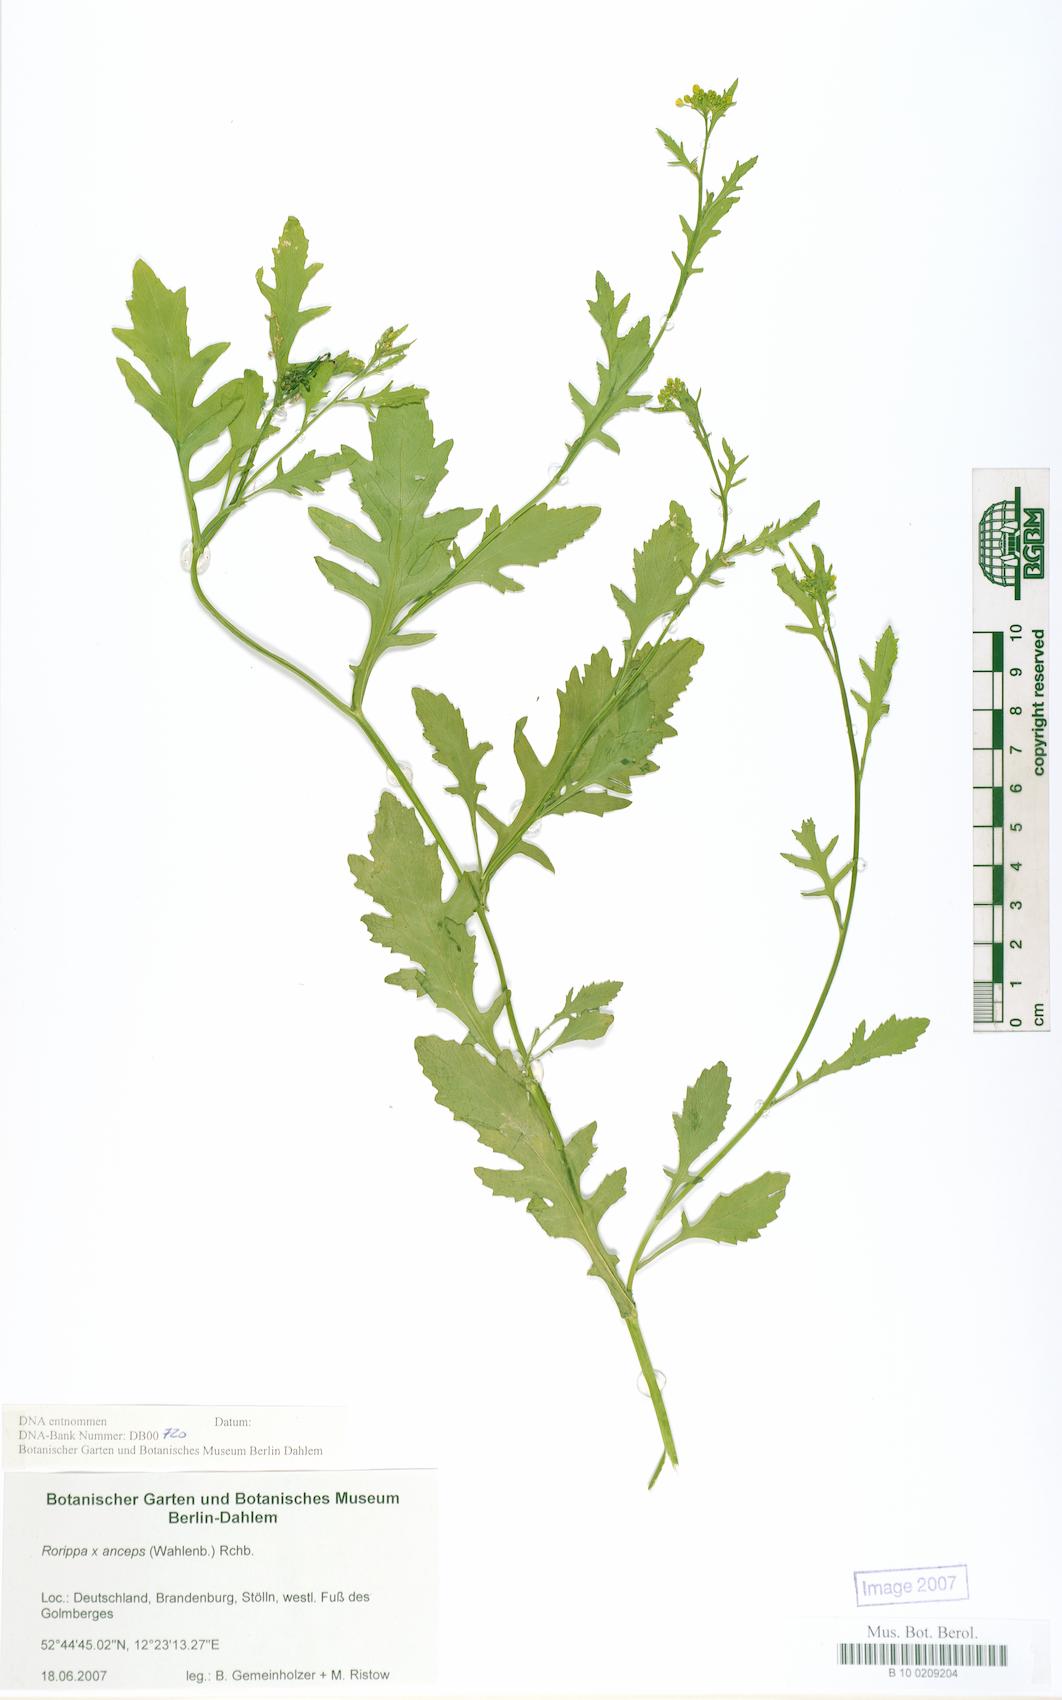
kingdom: Plantae
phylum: Tracheophyta
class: Magnoliopsida
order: Brassicales
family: Brassicaceae
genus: Rorippa
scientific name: Rorippa anceps
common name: Rorippa
